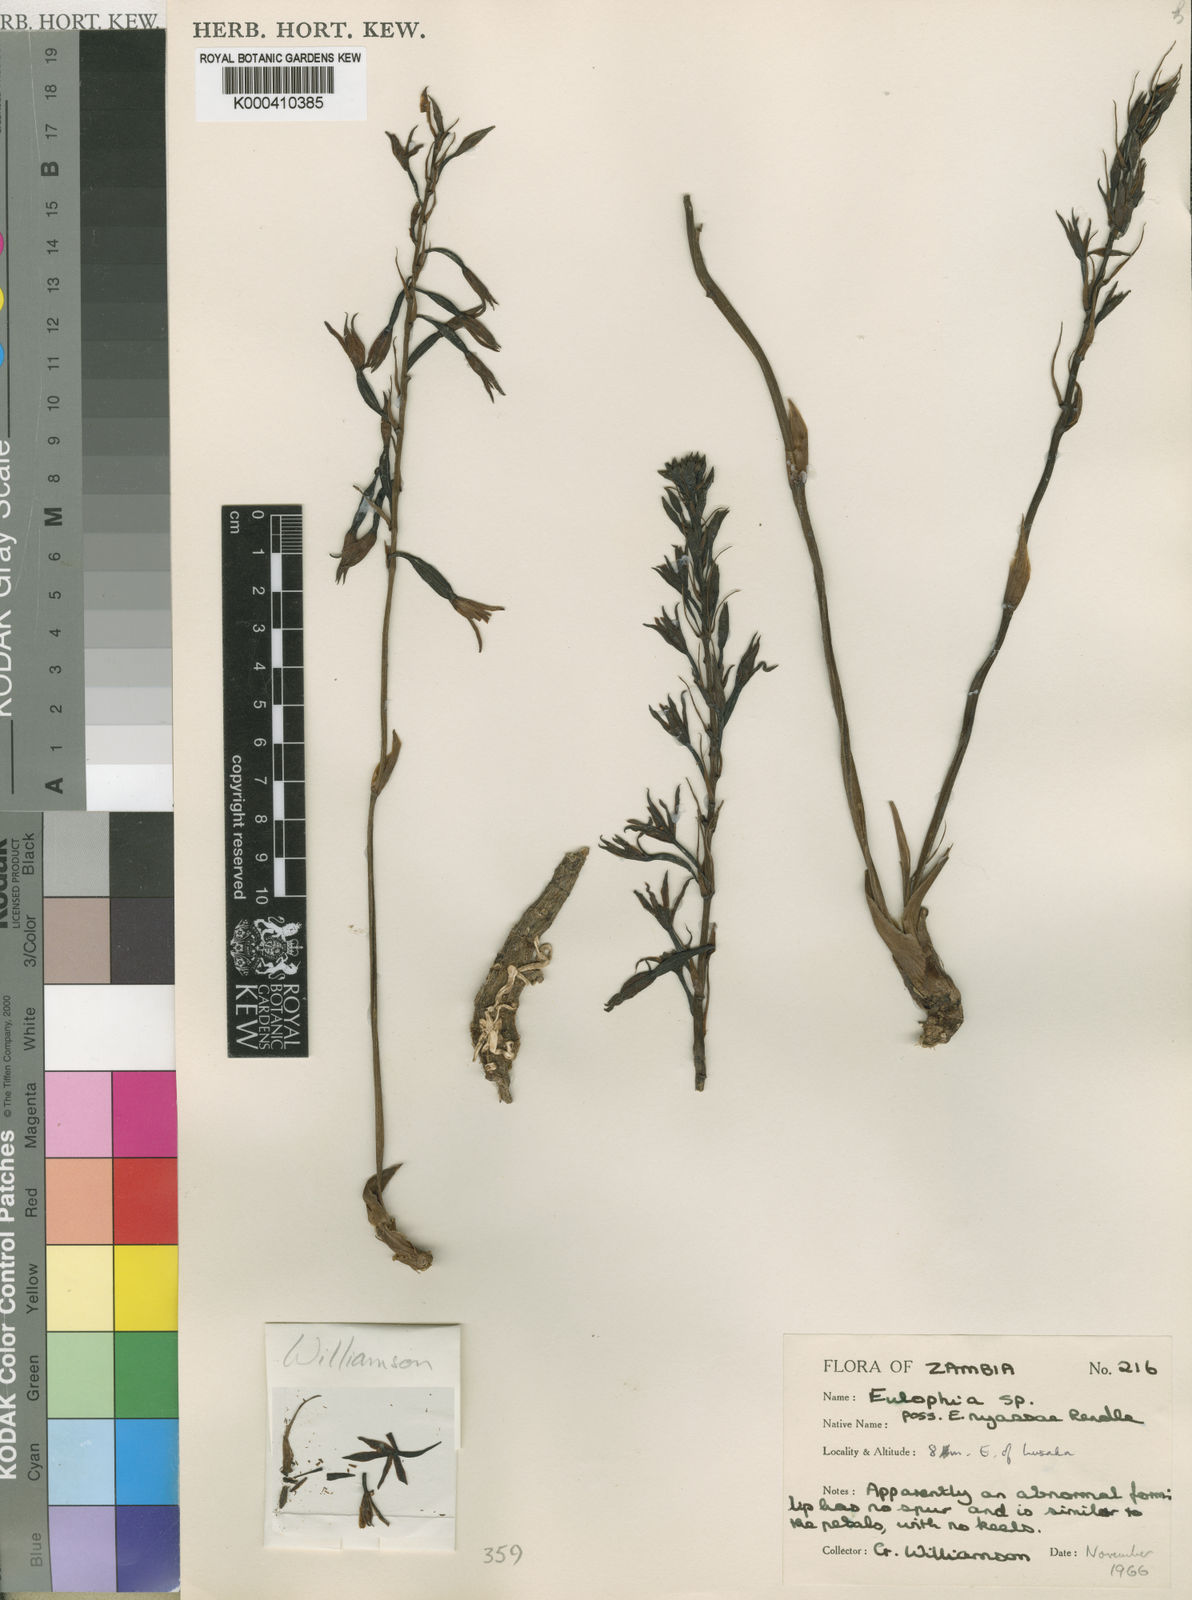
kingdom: Plantae
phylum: Tracheophyta
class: Liliopsida
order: Asparagales
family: Orchidaceae
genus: Eulophia
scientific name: Eulophia nyasae
